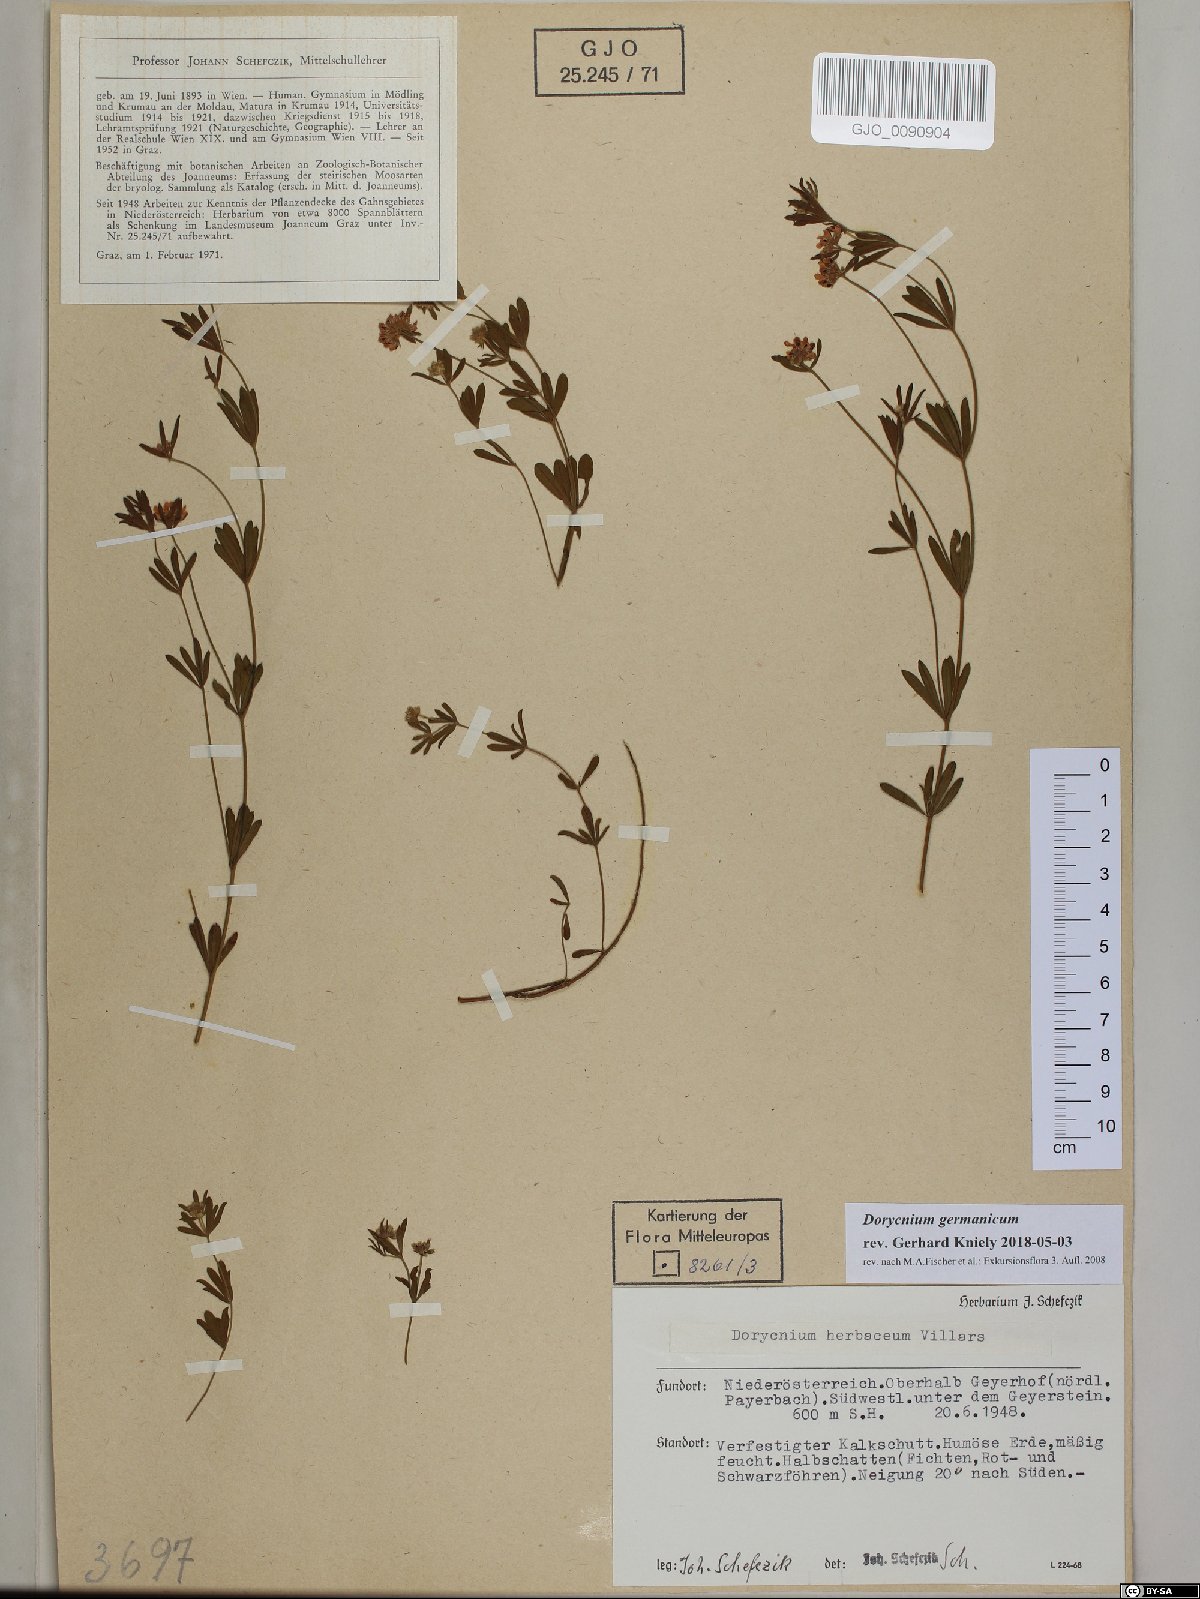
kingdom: Plantae
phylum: Tracheophyta
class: Magnoliopsida
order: Fabales
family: Fabaceae
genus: Lotus
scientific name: Lotus germanicus
